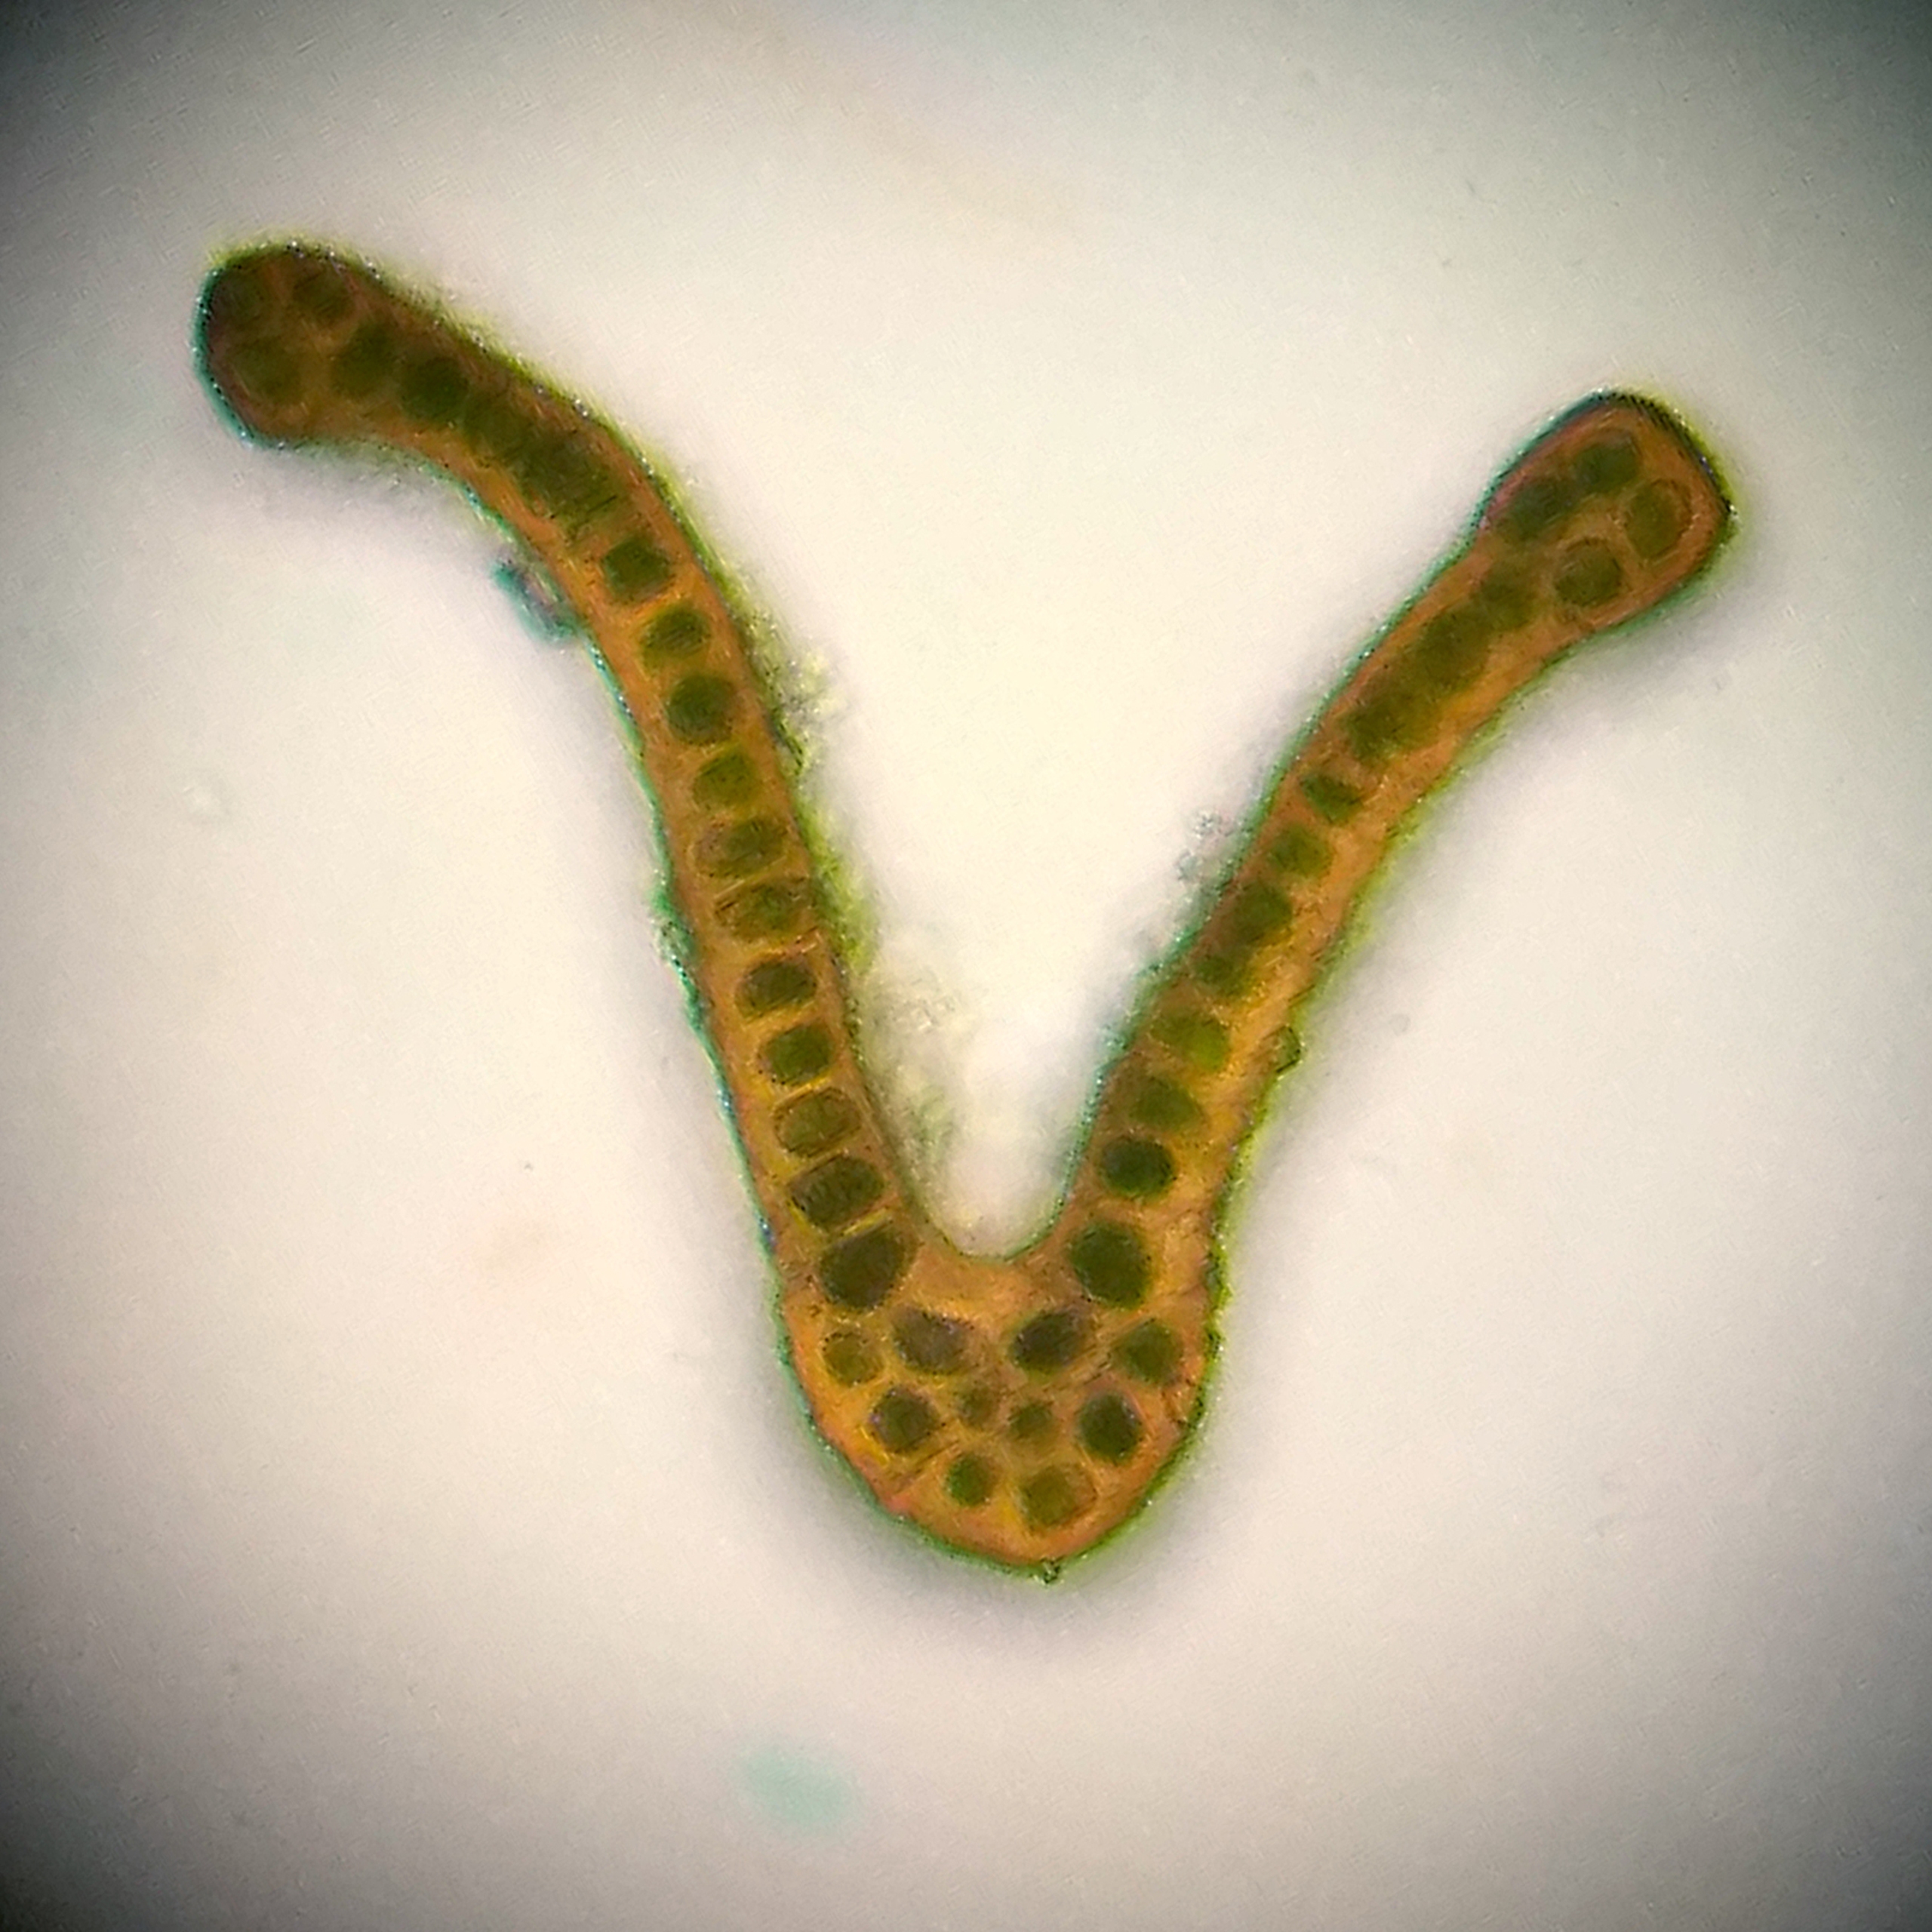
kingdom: Plantae
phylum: Bryophyta
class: Bryopsida
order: Grimmiales
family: Grimmiaceae
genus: Grimmia
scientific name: Grimmia trichophylla
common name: Glathåret gråmos
